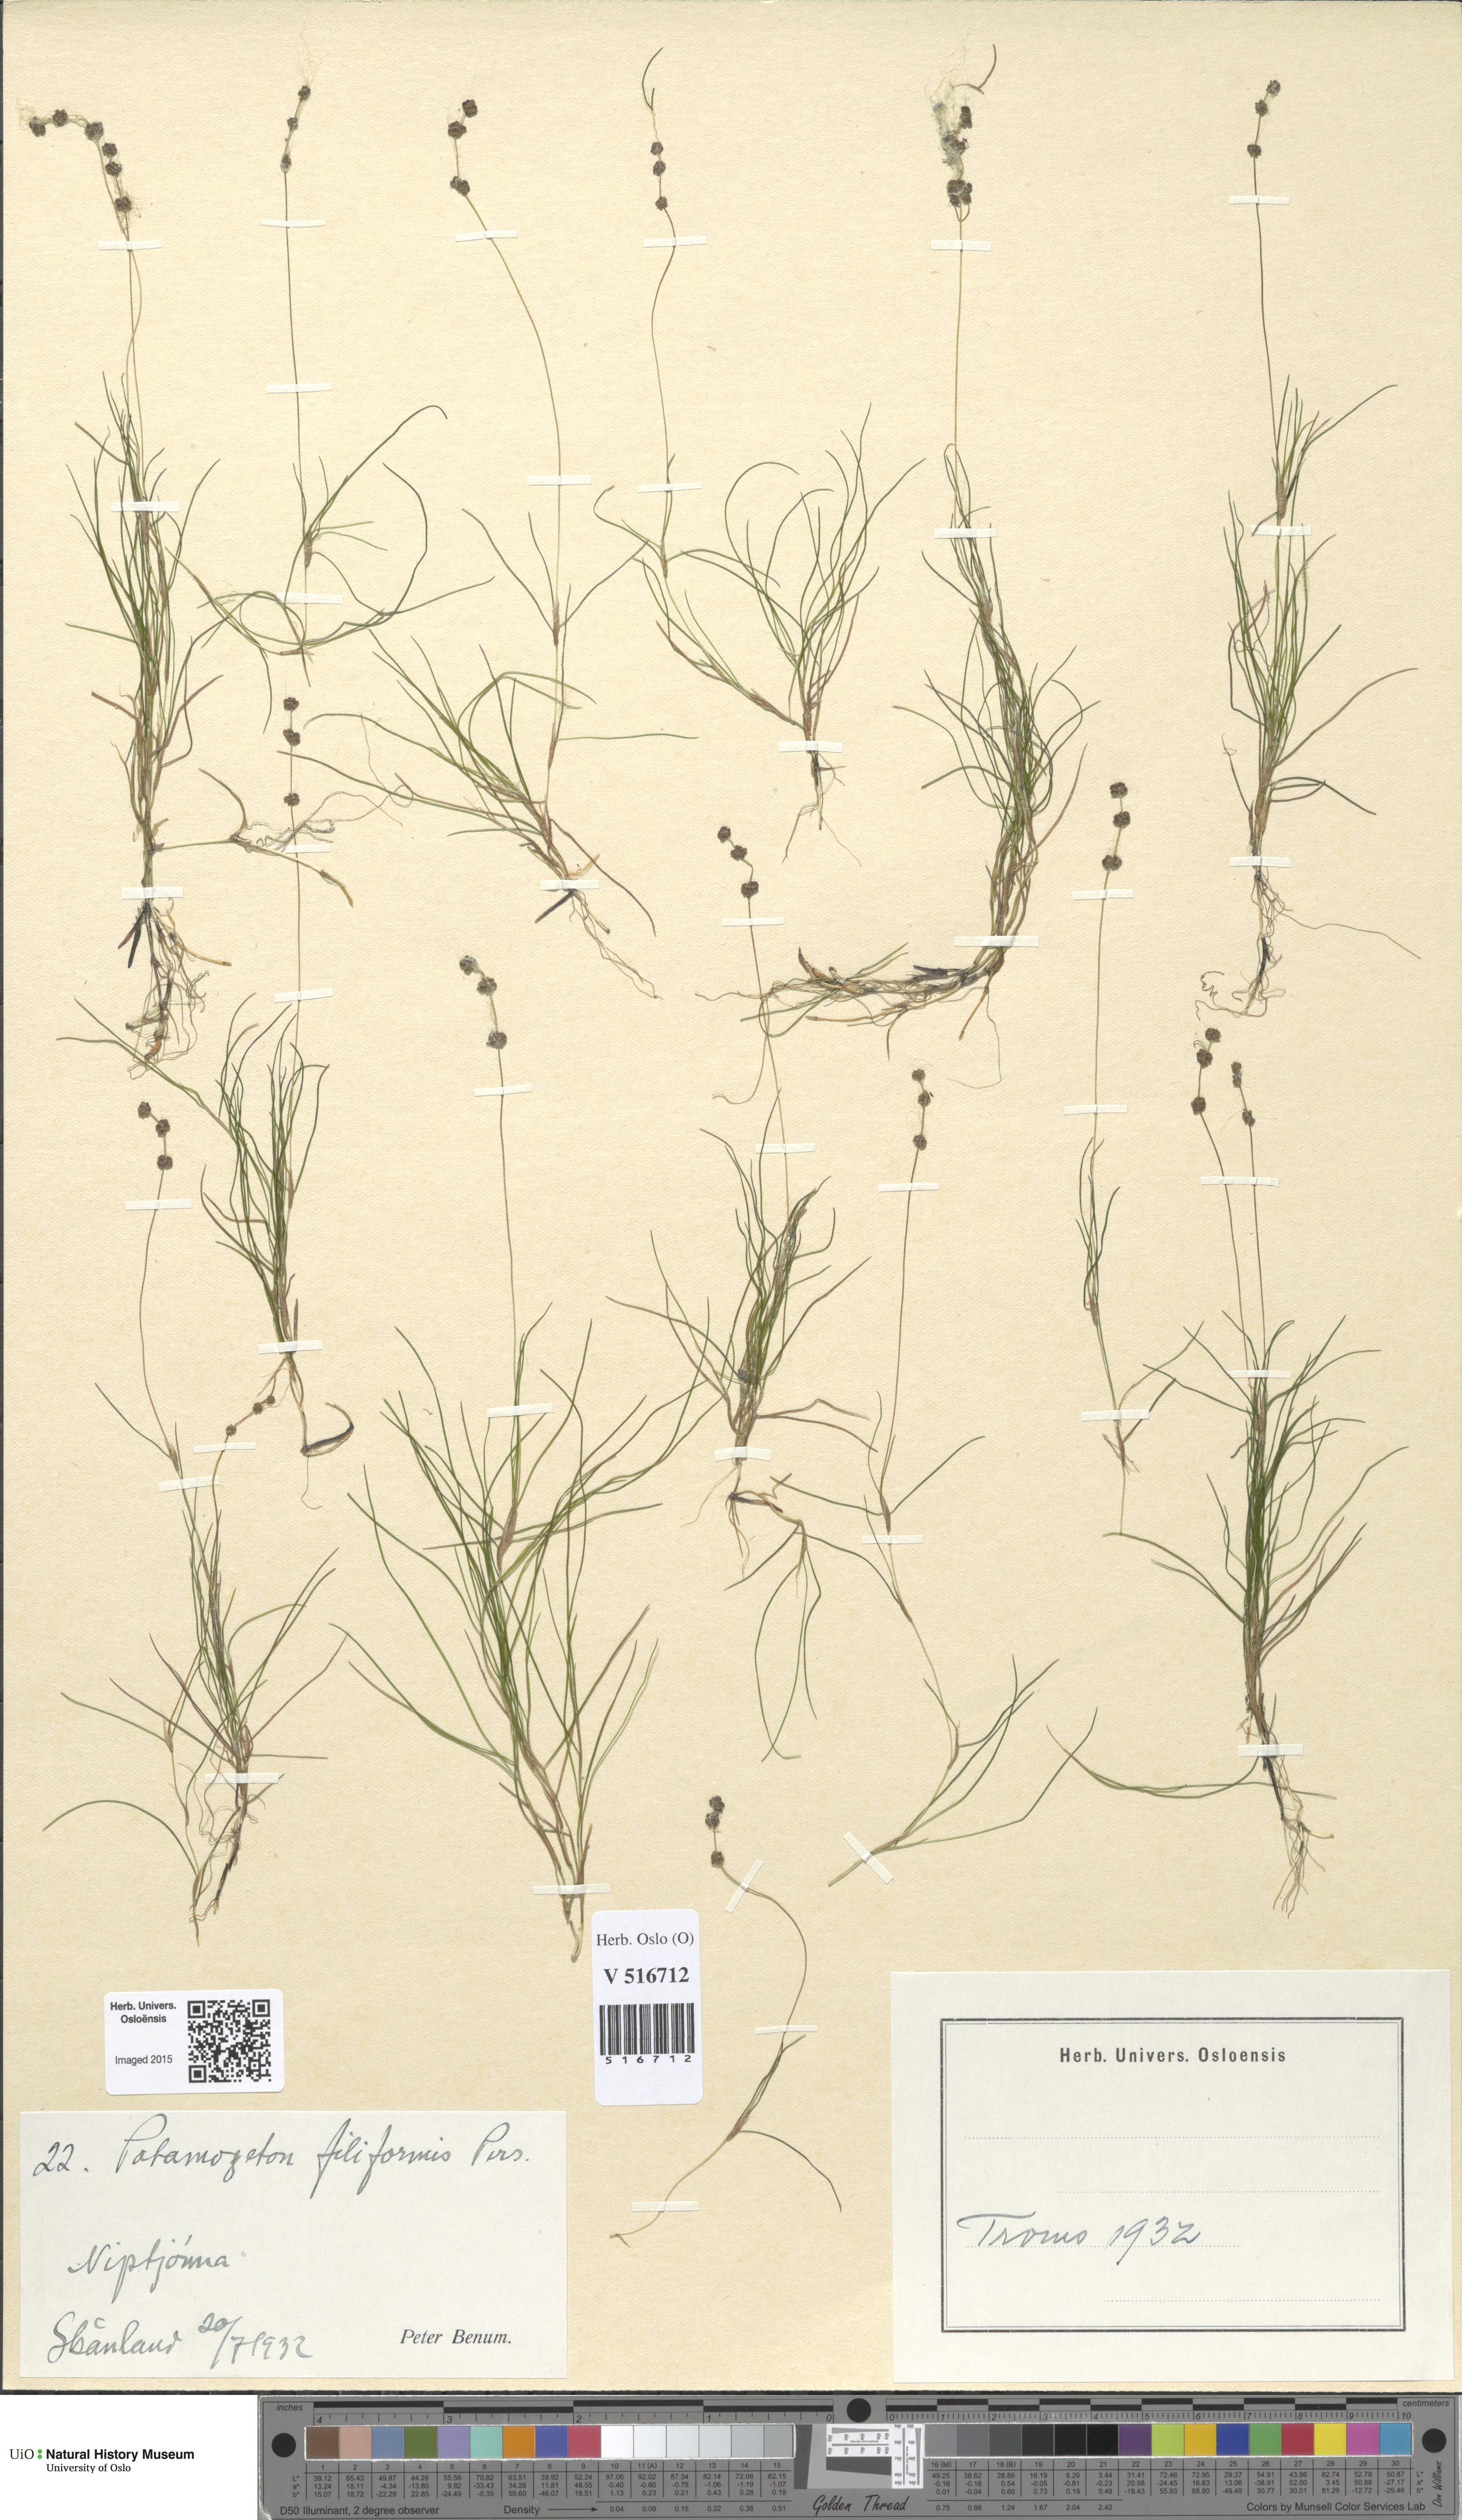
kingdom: Plantae
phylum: Tracheophyta
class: Liliopsida
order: Alismatales
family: Potamogetonaceae
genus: Stuckenia
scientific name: Stuckenia filiformis
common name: Alpine thread-leaved pondweed
